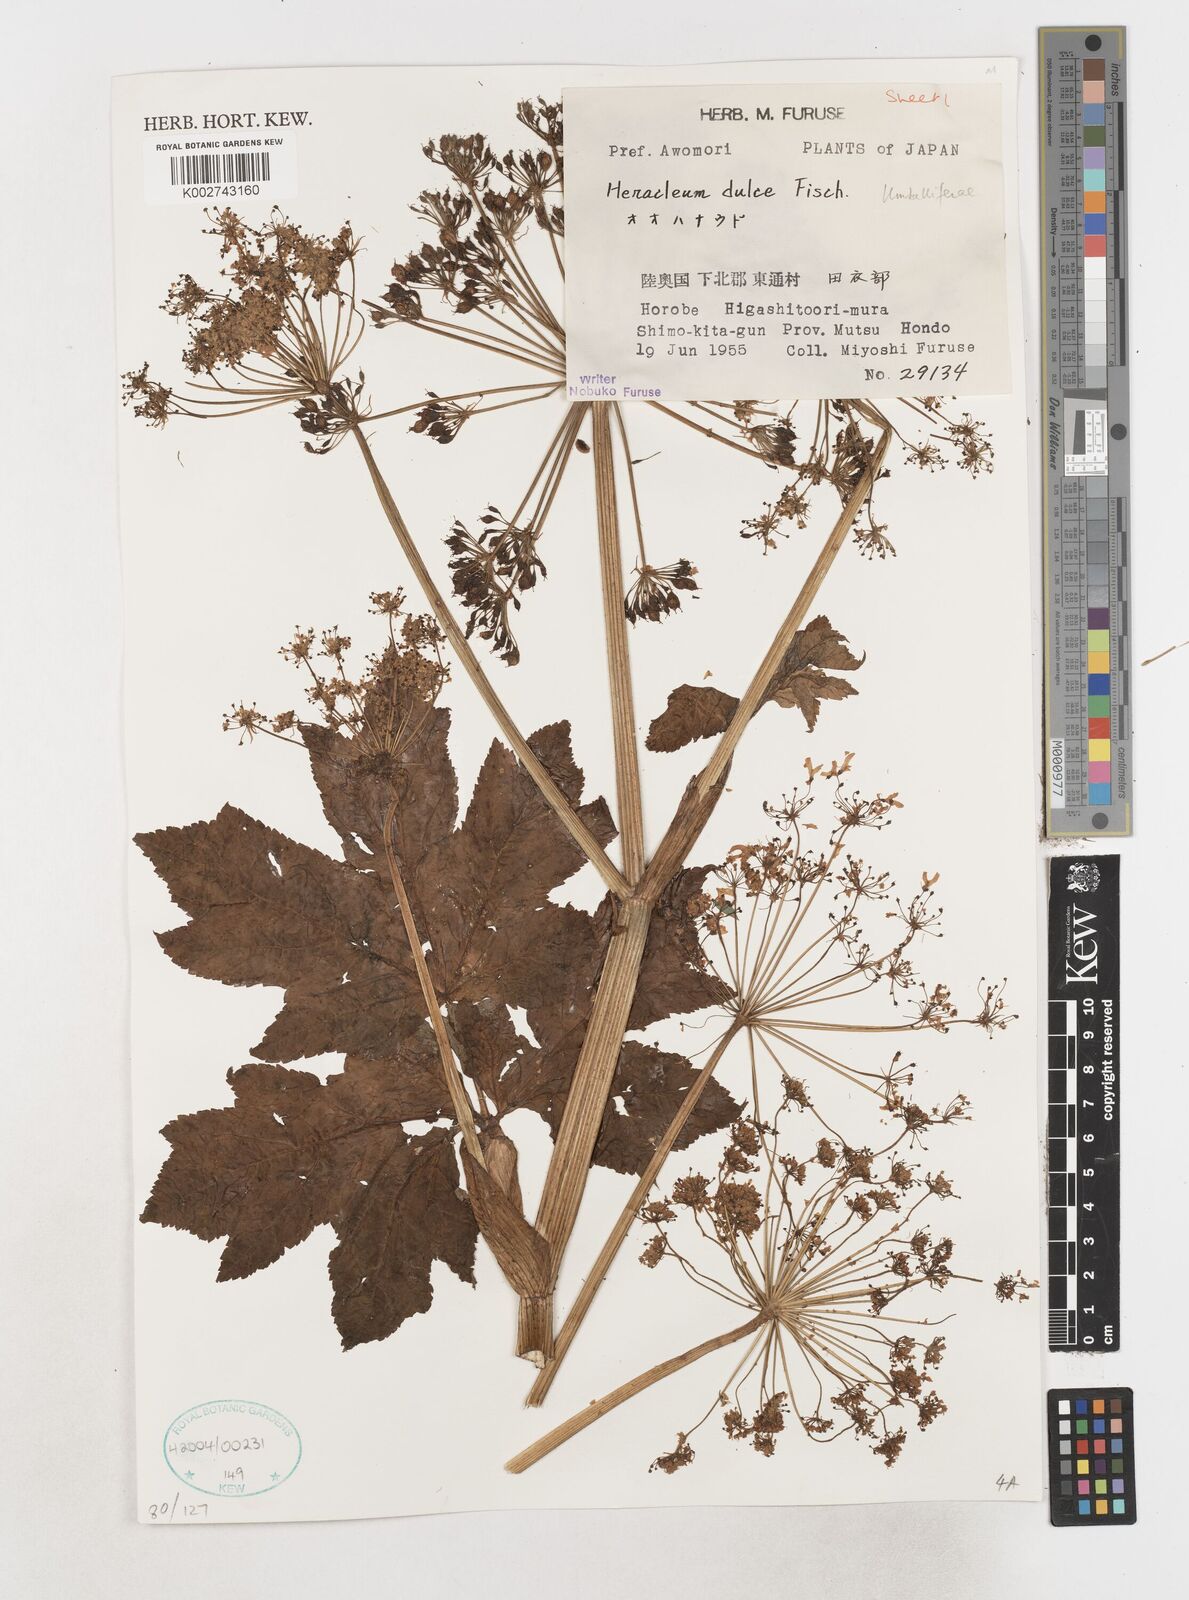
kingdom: Plantae
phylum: Tracheophyta
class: Magnoliopsida
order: Apiales
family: Apiaceae
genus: Heracleum
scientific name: Heracleum
